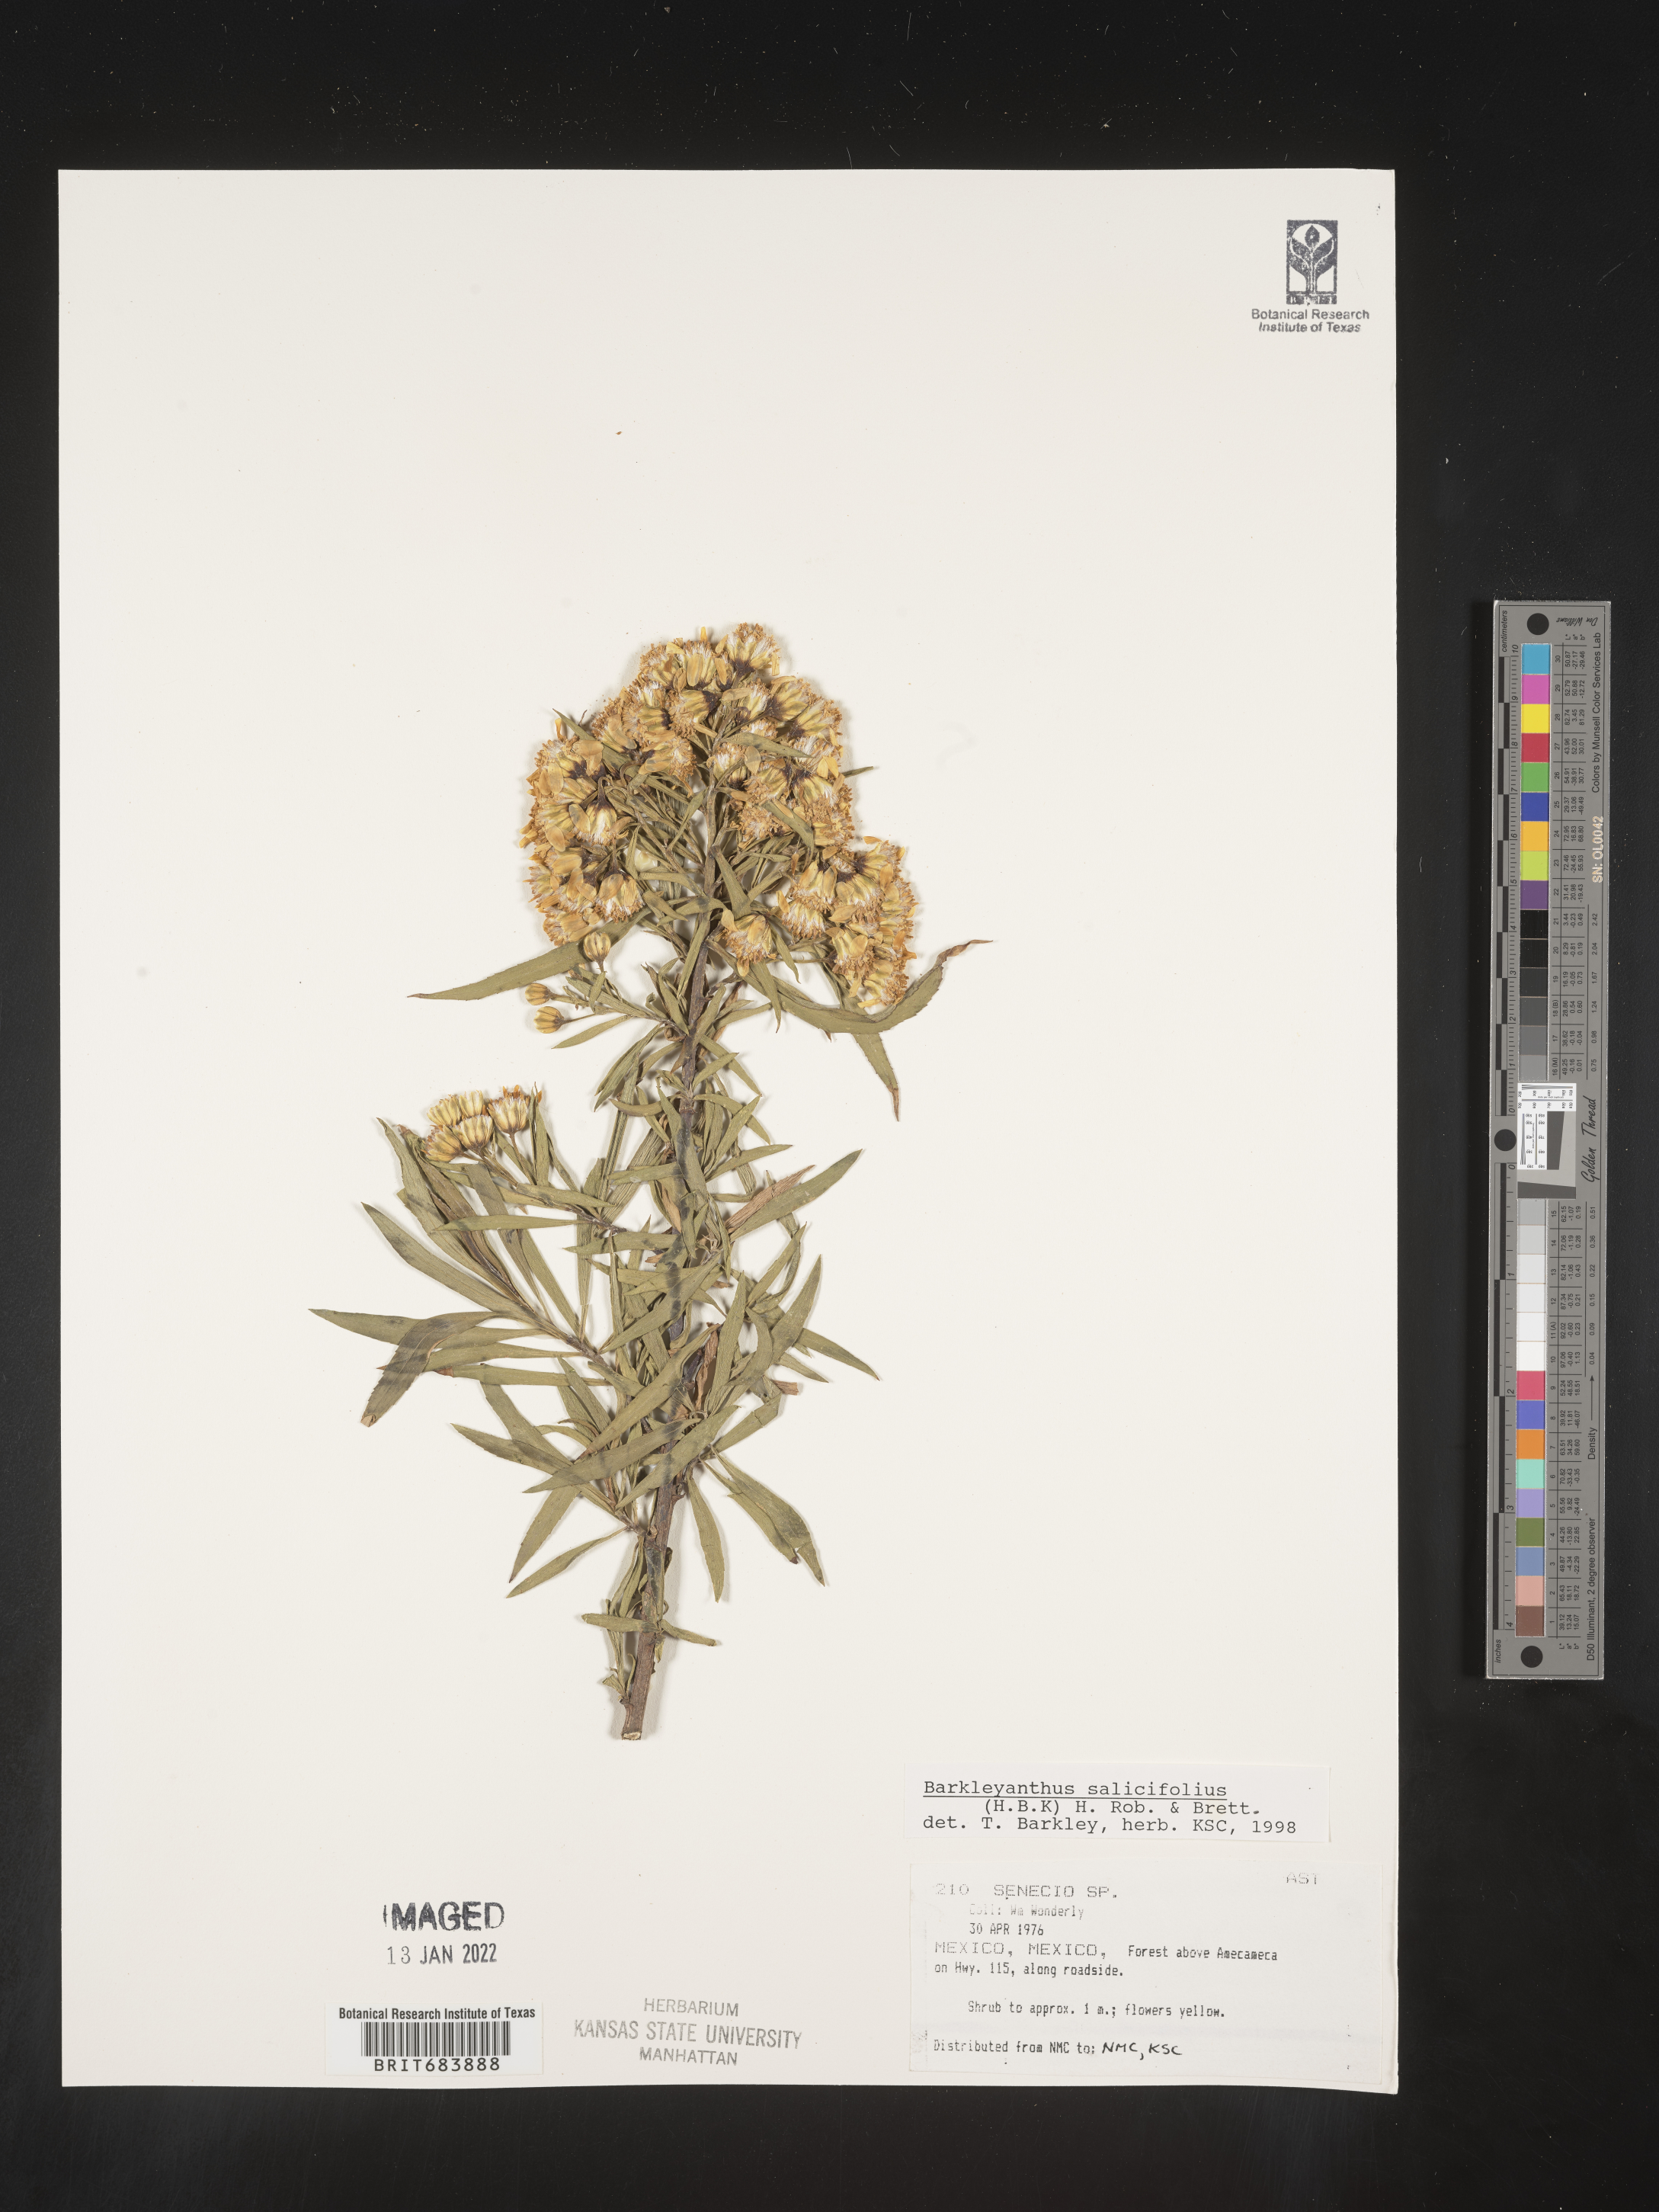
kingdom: Plantae
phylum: Tracheophyta
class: Magnoliopsida
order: Asterales
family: Asteraceae
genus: Barkleyanthus
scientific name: Barkleyanthus
